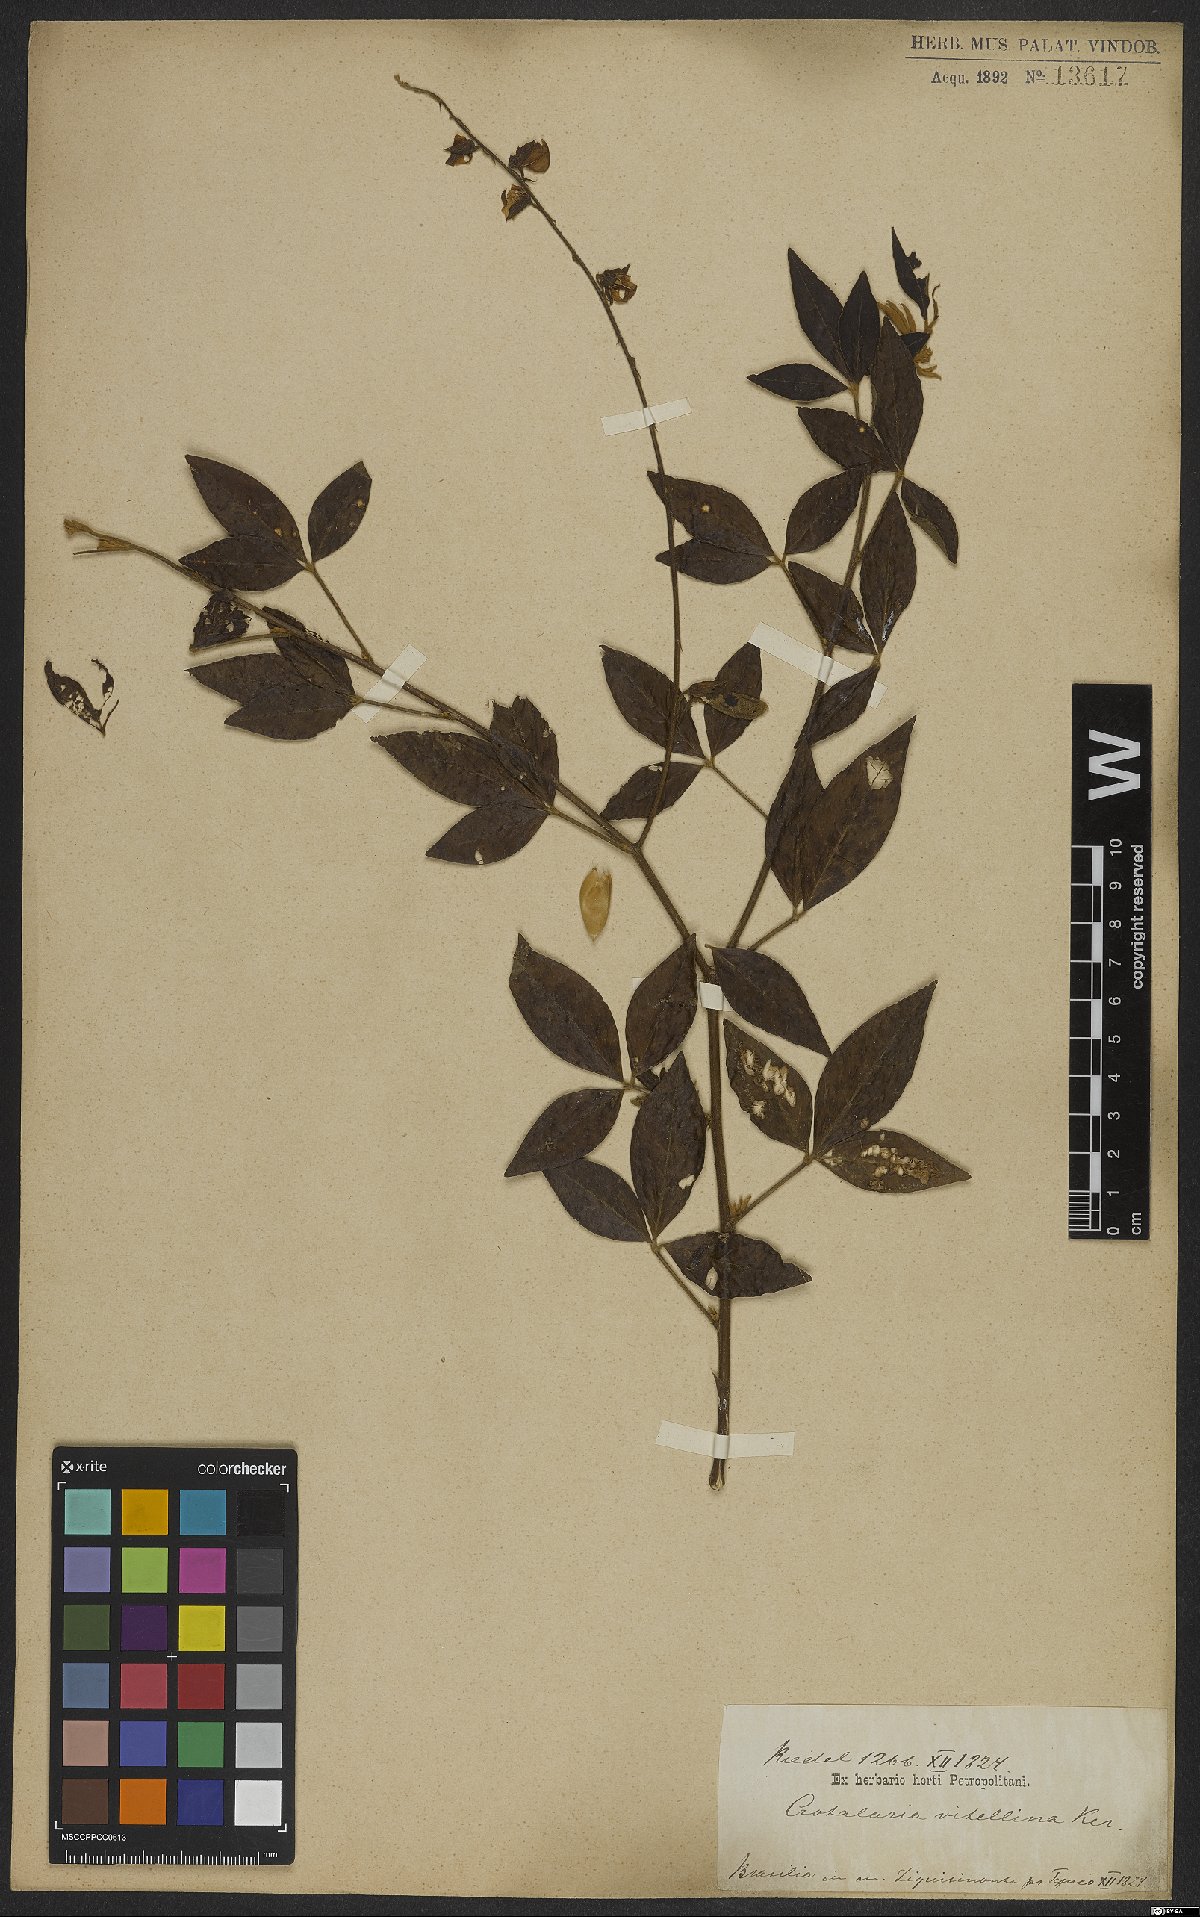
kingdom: Plantae
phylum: Tracheophyta
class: Magnoliopsida
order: Fabales
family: Fabaceae
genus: Crotalaria
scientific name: Crotalaria vitellina
